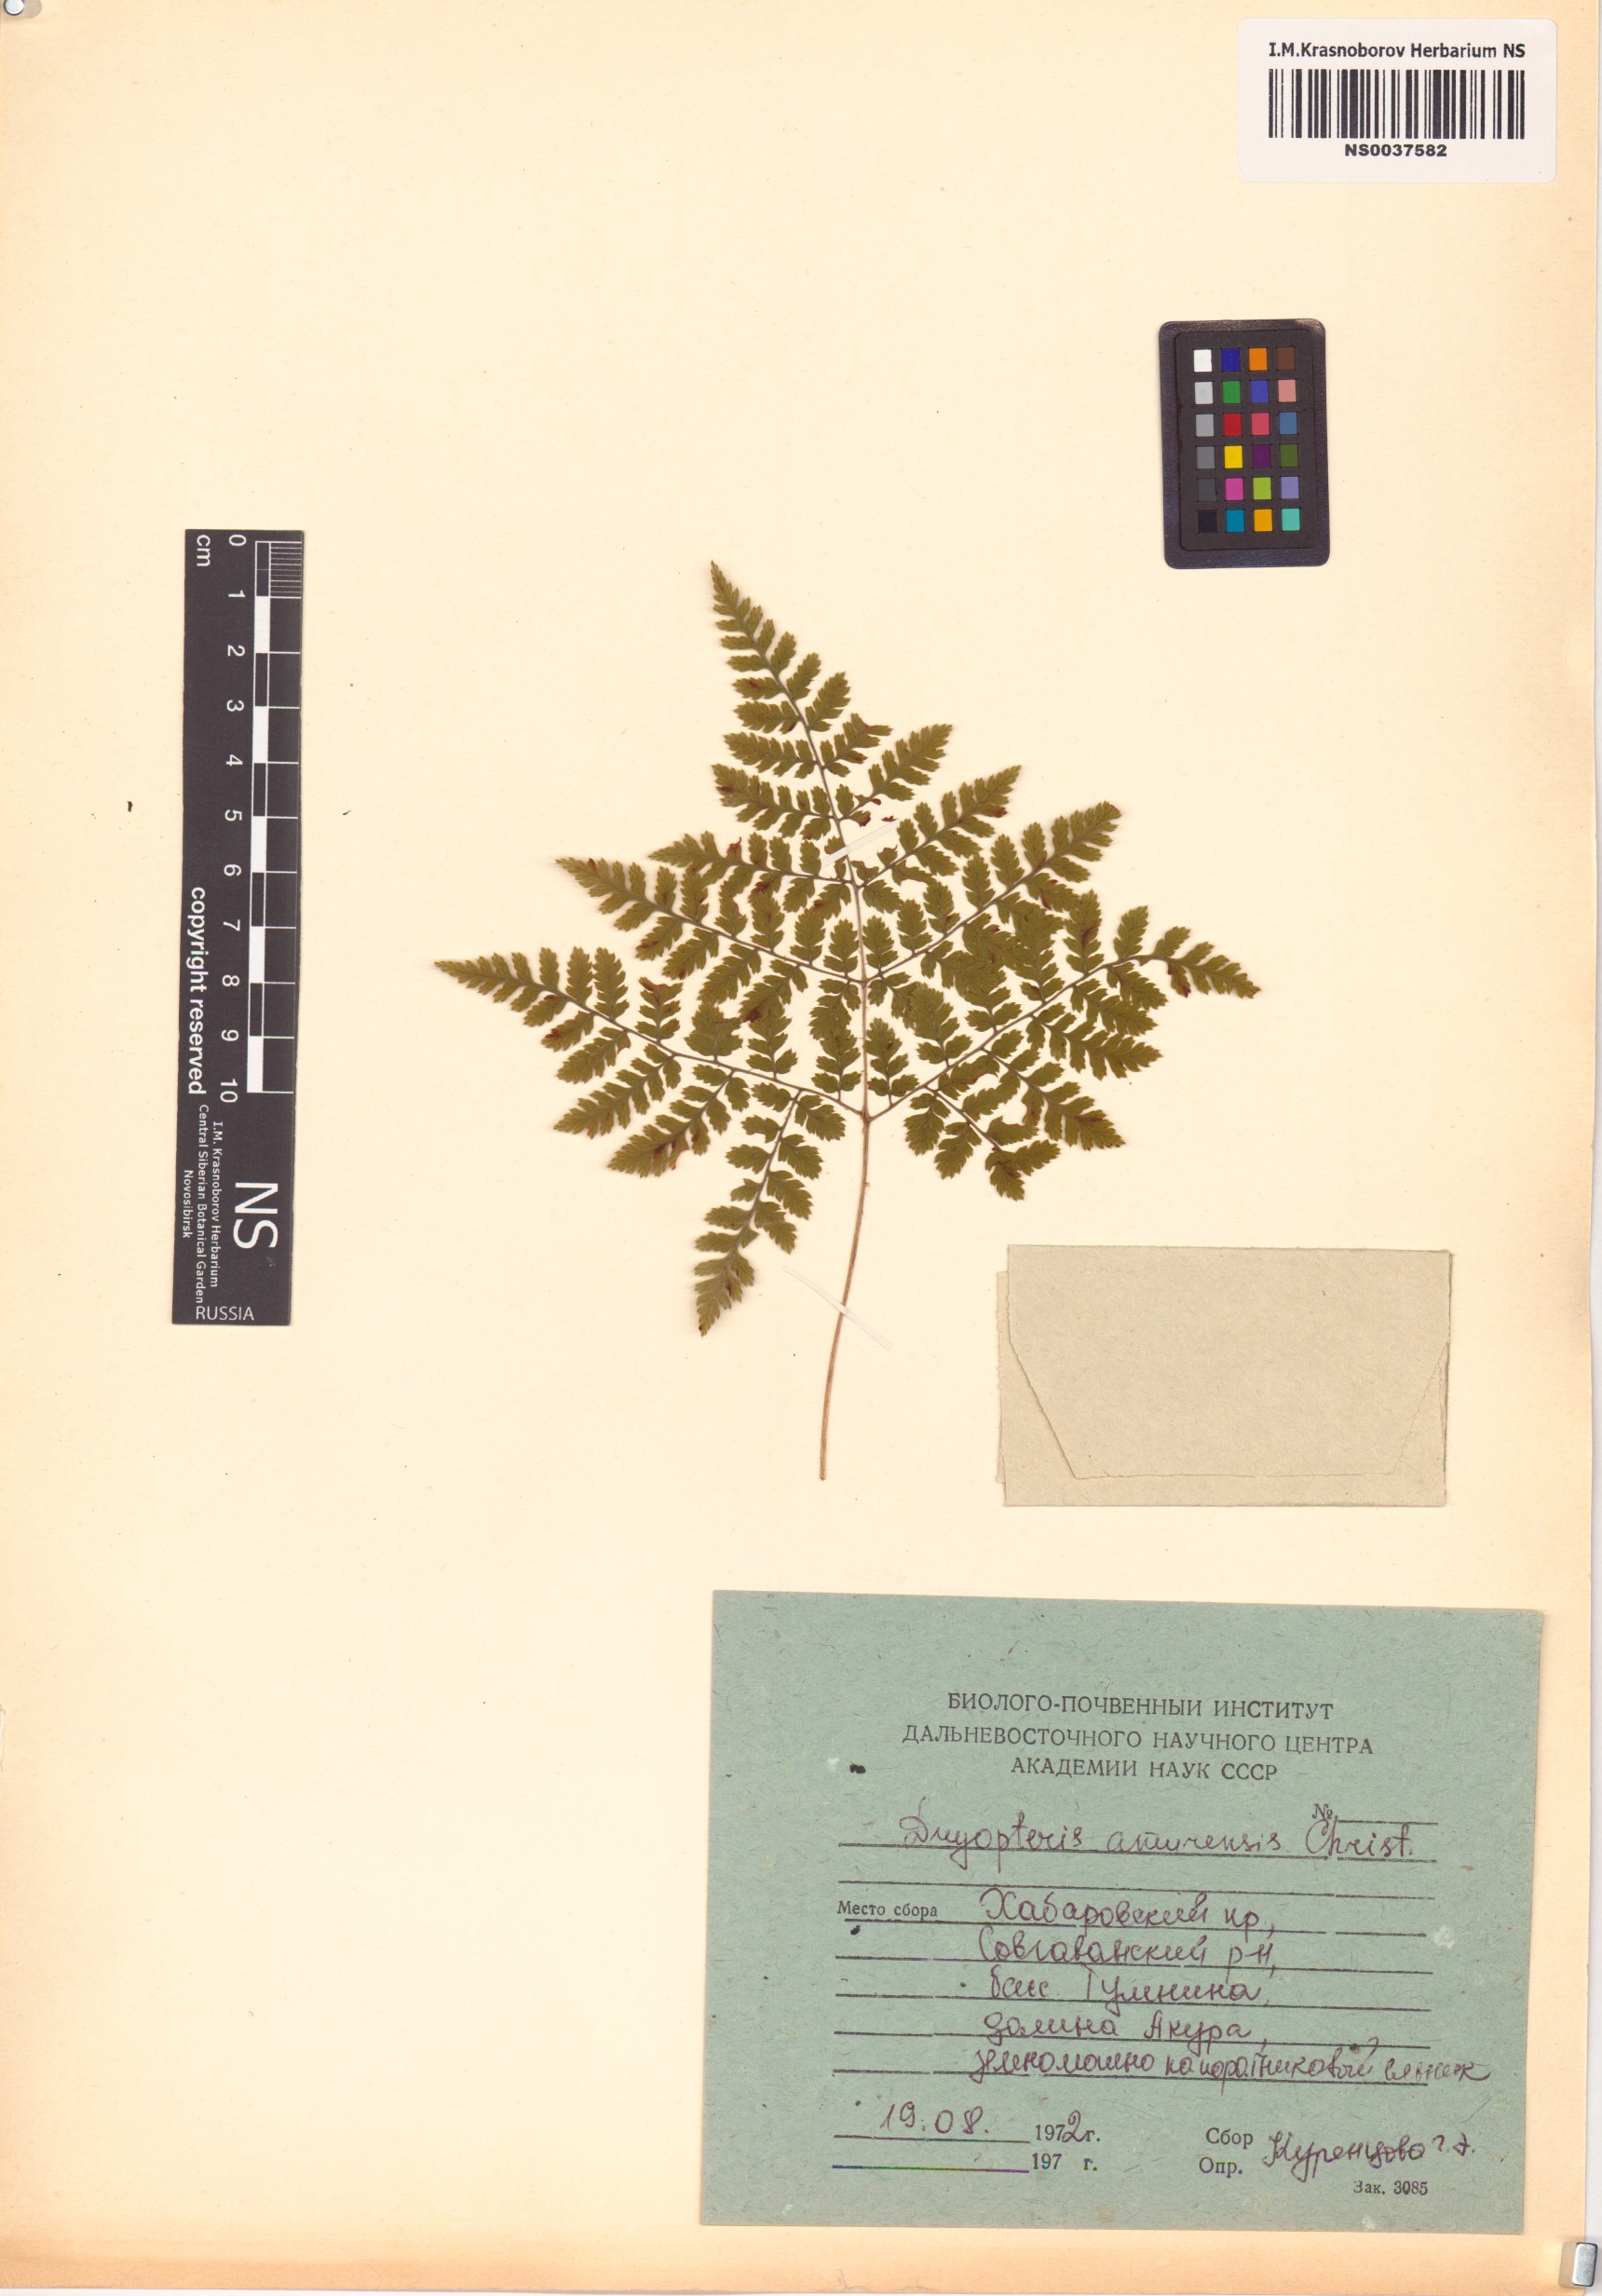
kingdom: Plantae
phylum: Tracheophyta
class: Polypodiopsida
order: Polypodiales
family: Dryopteridaceae
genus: Dryopteris
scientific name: Dryopteris amurensis
